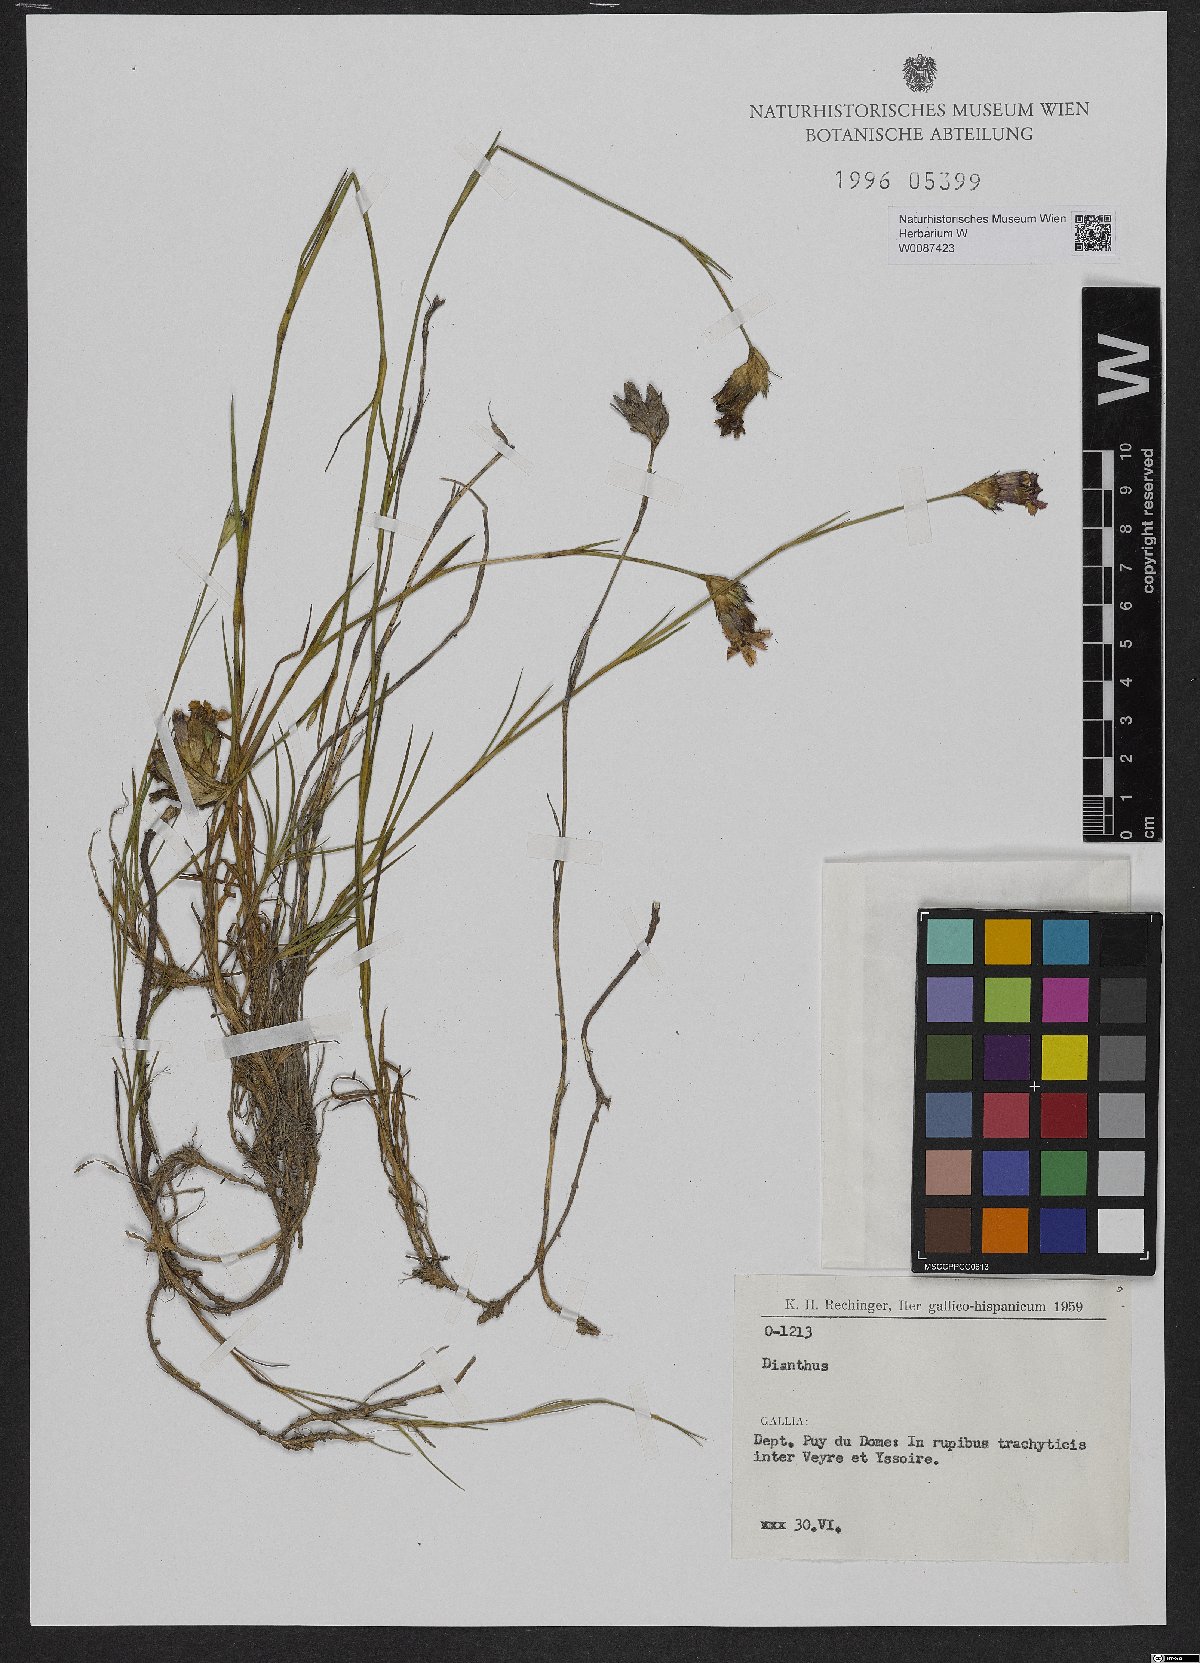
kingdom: Plantae
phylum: Tracheophyta
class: Magnoliopsida
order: Caryophyllales
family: Caryophyllaceae
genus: Dianthus
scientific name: Dianthus
